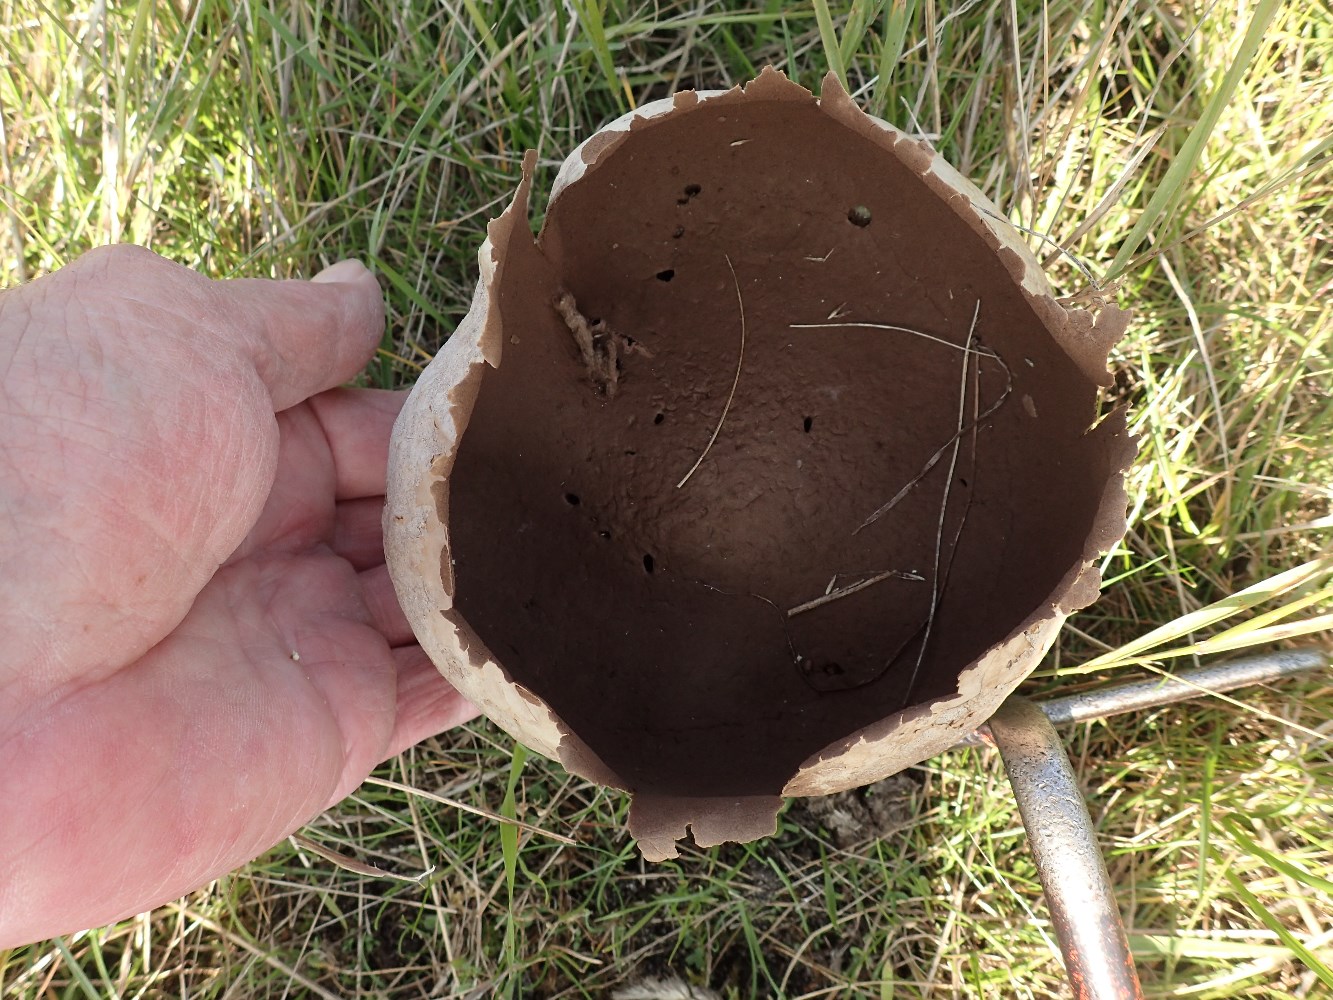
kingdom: Fungi
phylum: Basidiomycota
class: Agaricomycetes
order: Agaricales
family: Lycoperdaceae
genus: Bovistella
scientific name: Bovistella utriformis
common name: skællet støvbold
